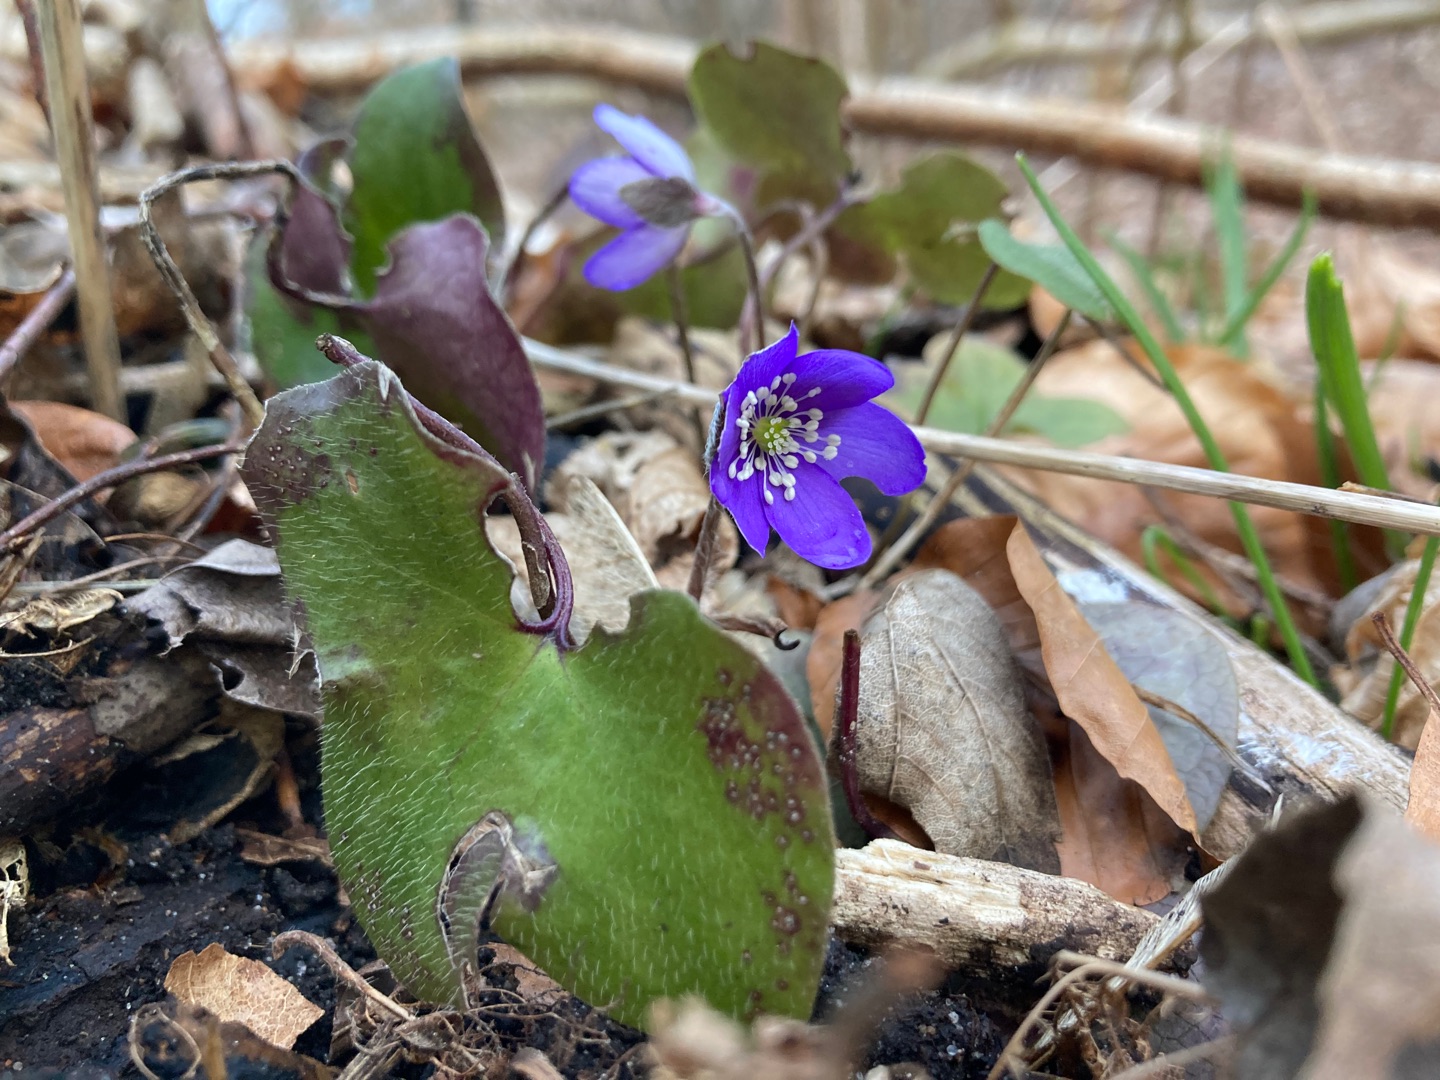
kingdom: Plantae
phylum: Tracheophyta
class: Magnoliopsida
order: Ranunculales
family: Ranunculaceae
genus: Hepatica
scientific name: Hepatica nobilis
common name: Blå anemone
